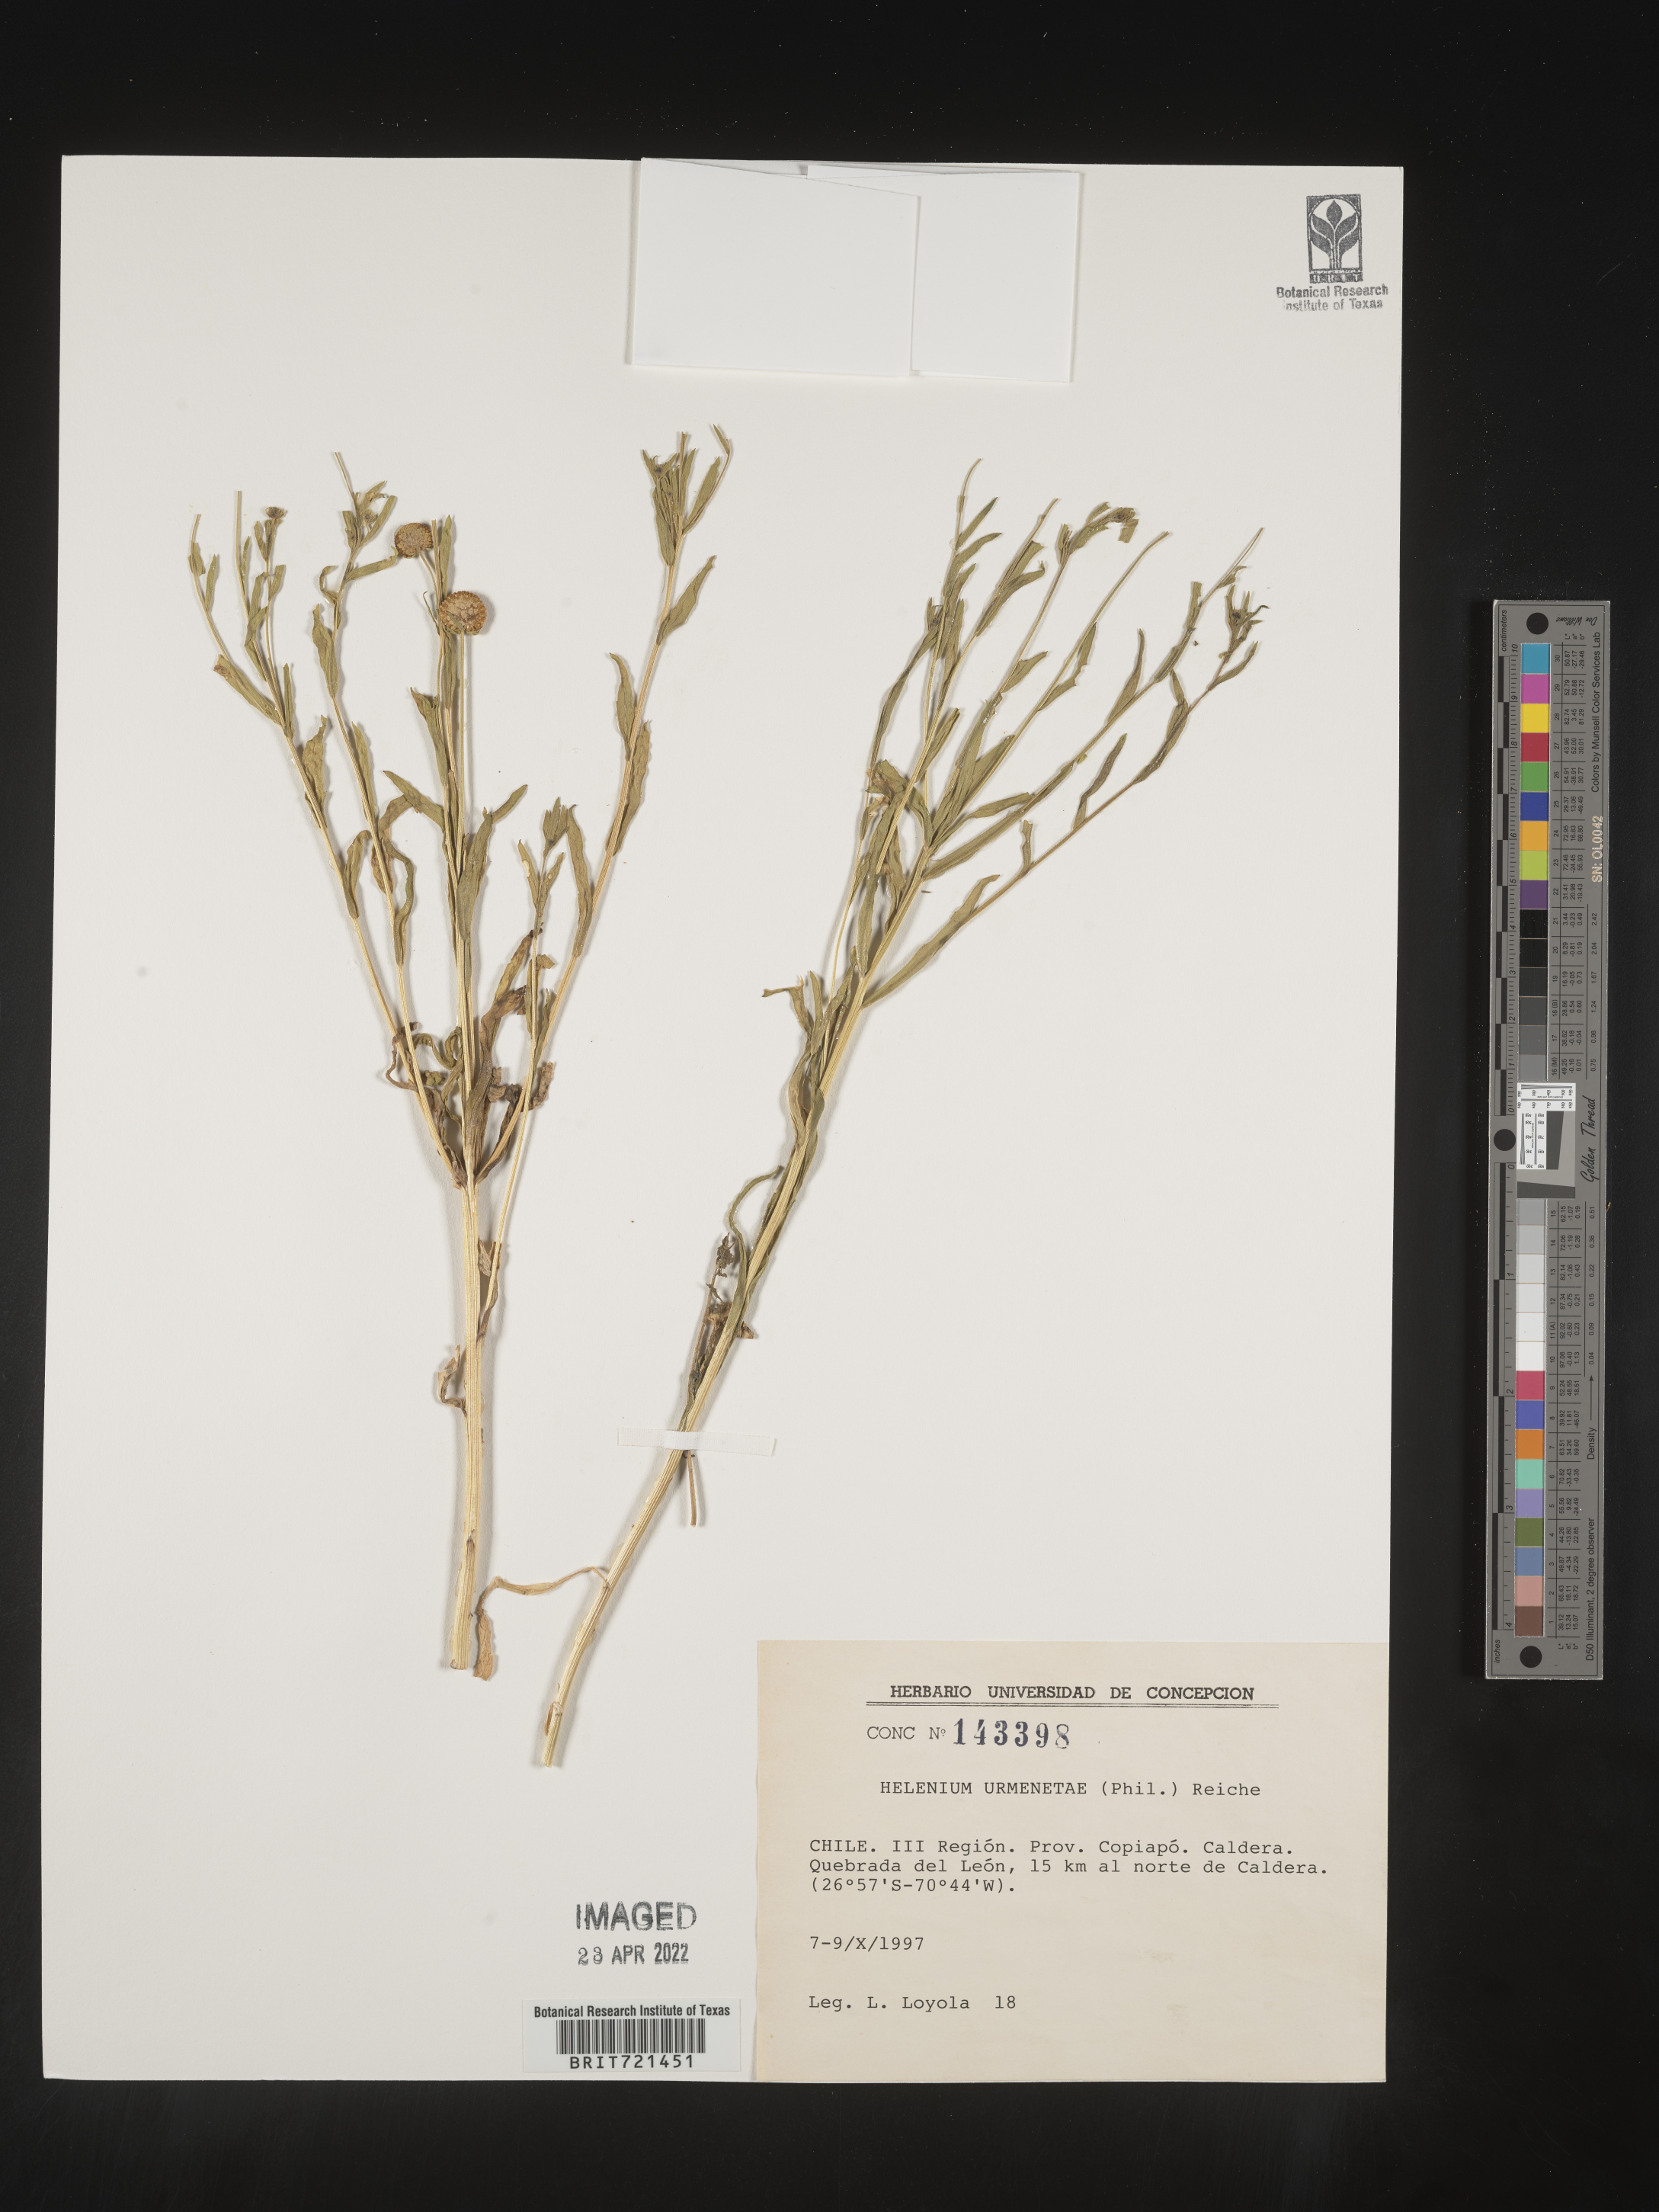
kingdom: Plantae
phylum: Tracheophyta
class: Magnoliopsida
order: Asterales
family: Asteraceae
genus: Helenium
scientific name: Helenium
